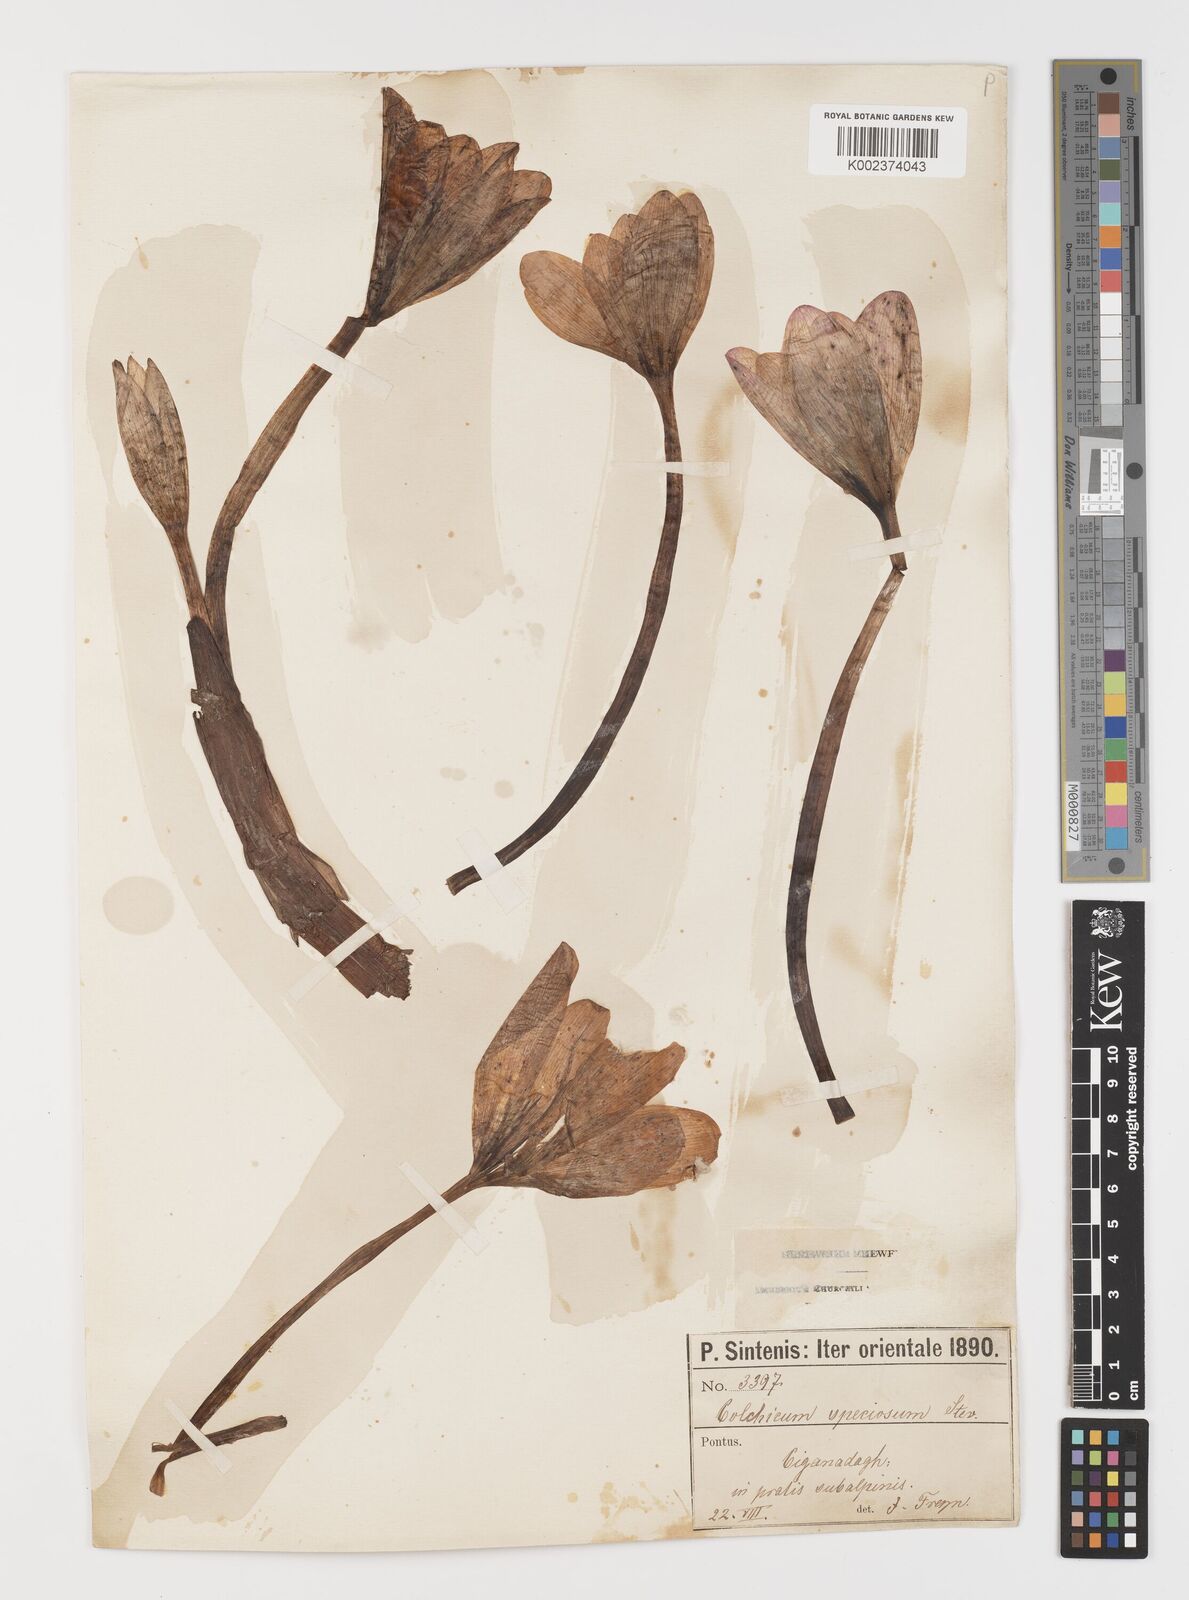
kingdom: Plantae
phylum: Tracheophyta
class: Liliopsida
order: Liliales
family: Colchicaceae
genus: Colchicum
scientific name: Colchicum speciosum
